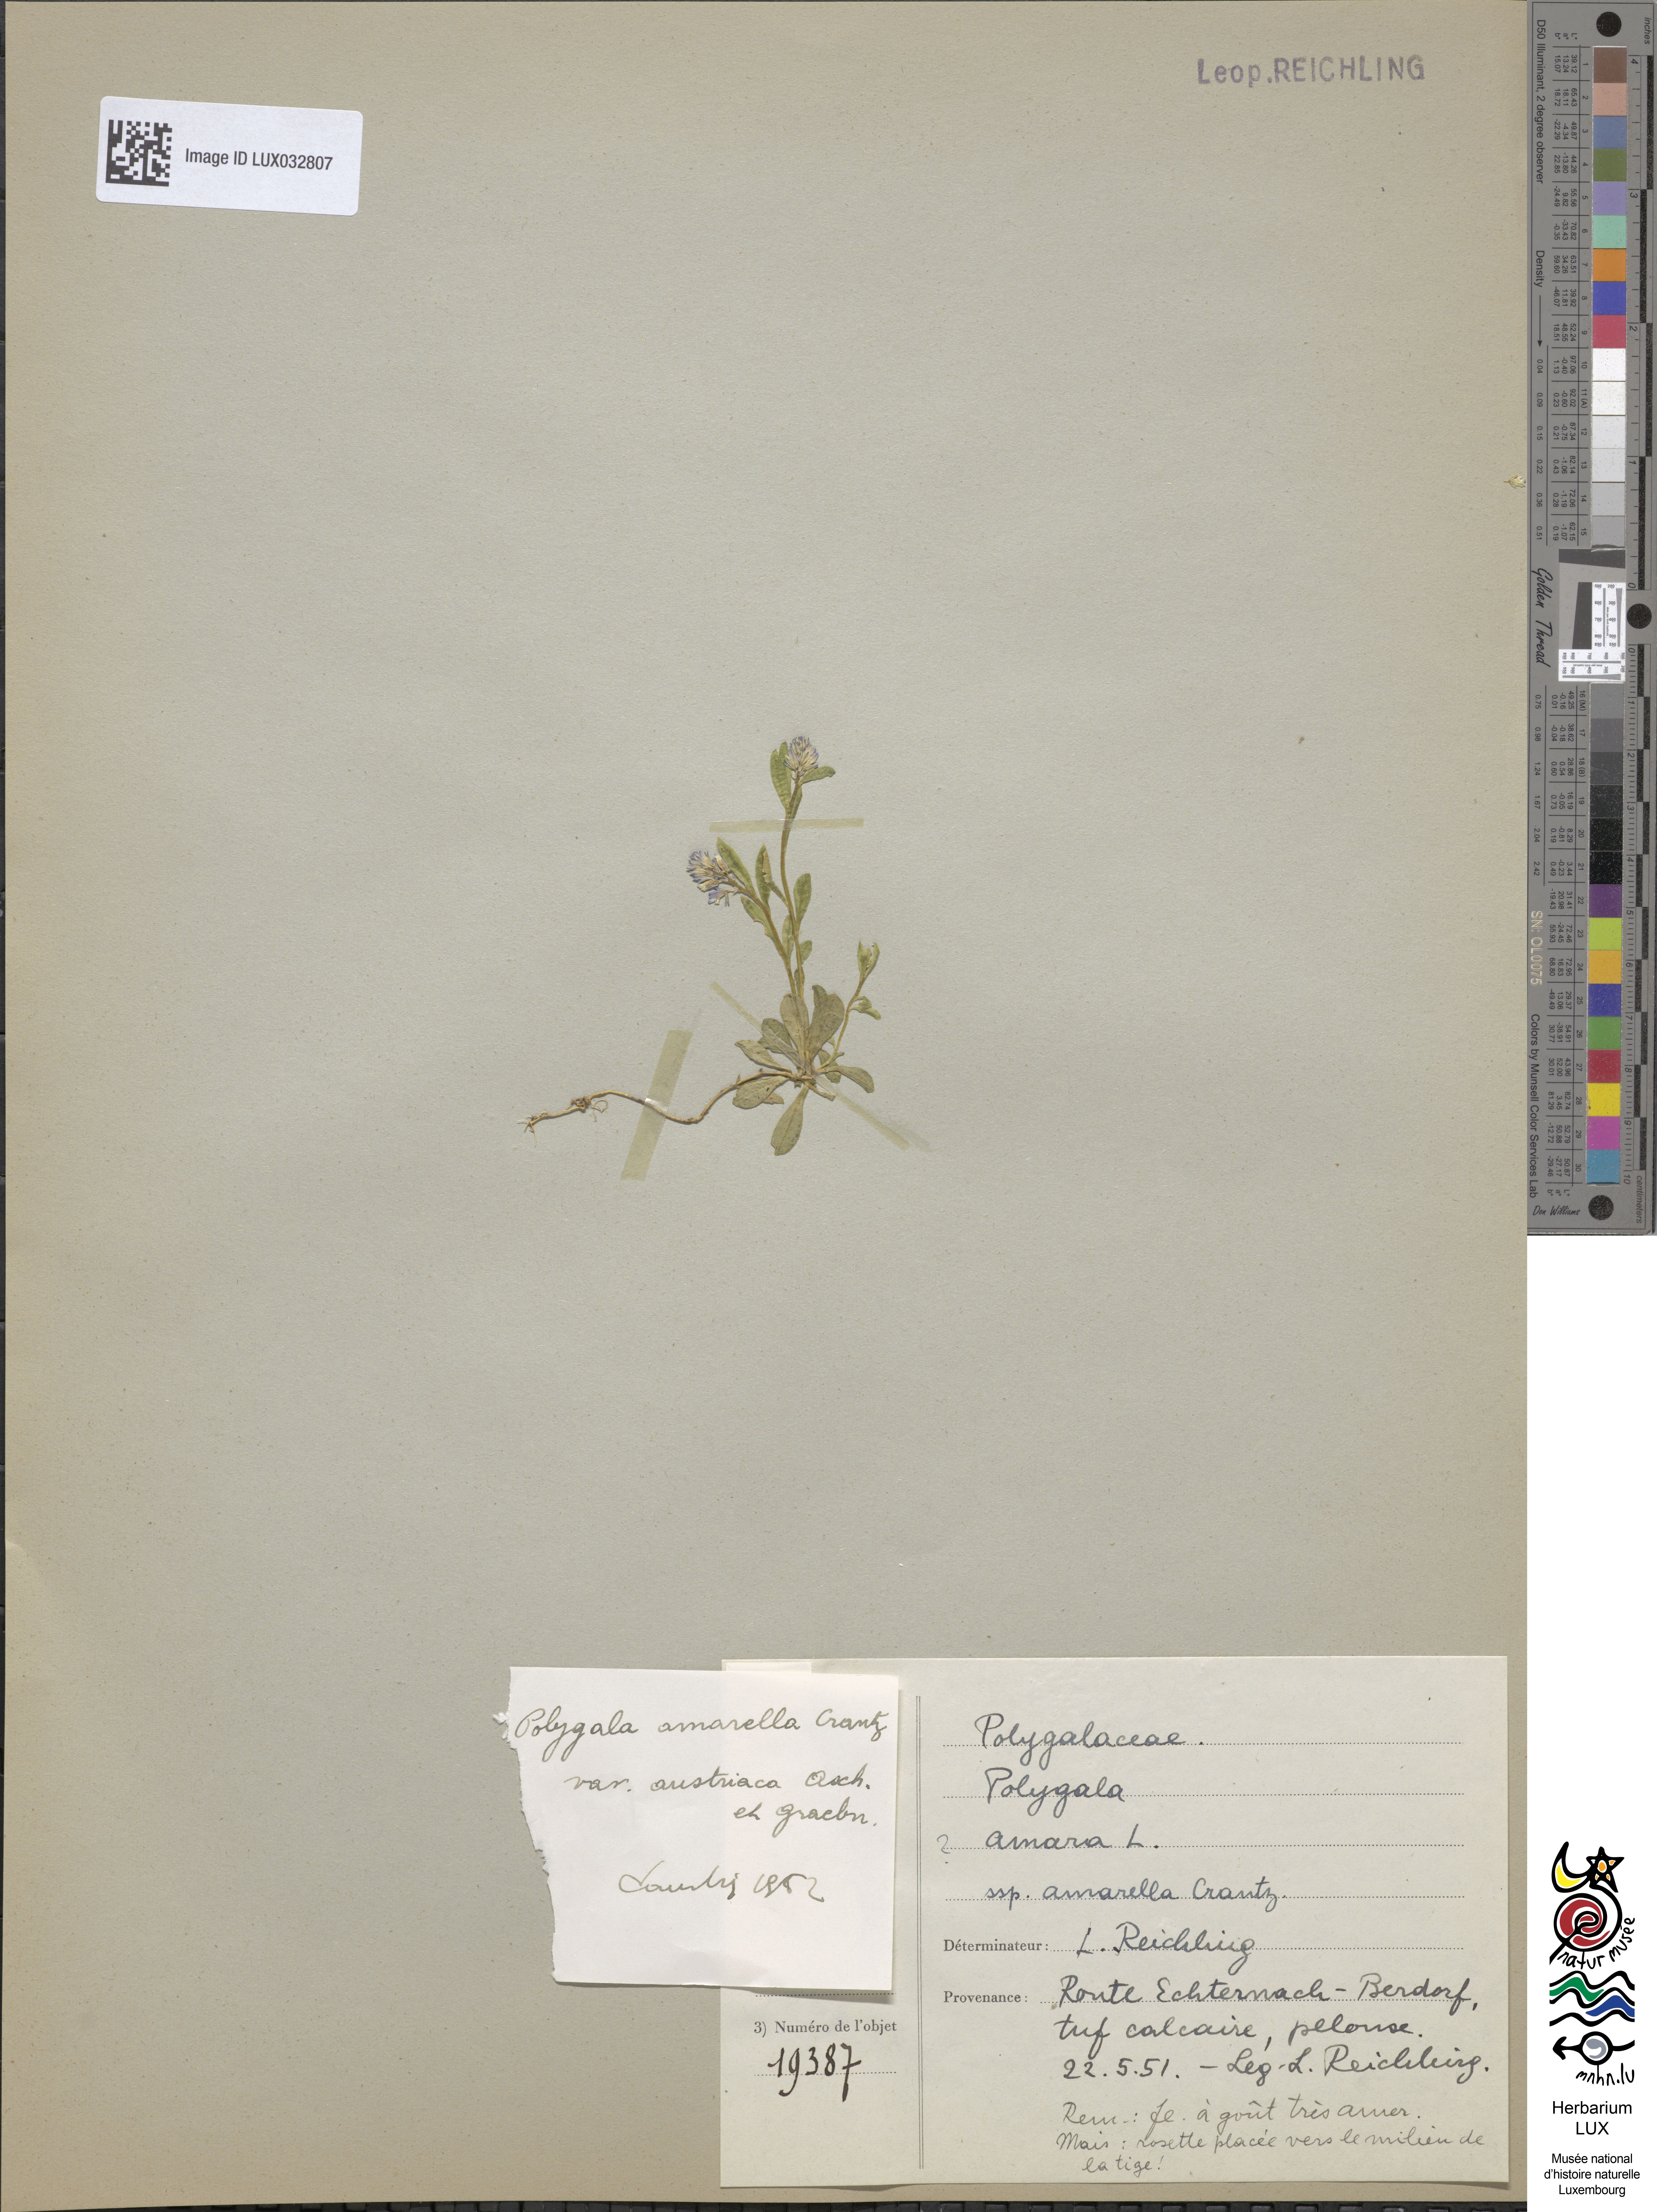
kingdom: Plantae
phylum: Tracheophyta
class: Magnoliopsida
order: Fabales
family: Polygalaceae
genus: Polygala
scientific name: Polygala amarella
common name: Dwarf milkwort
